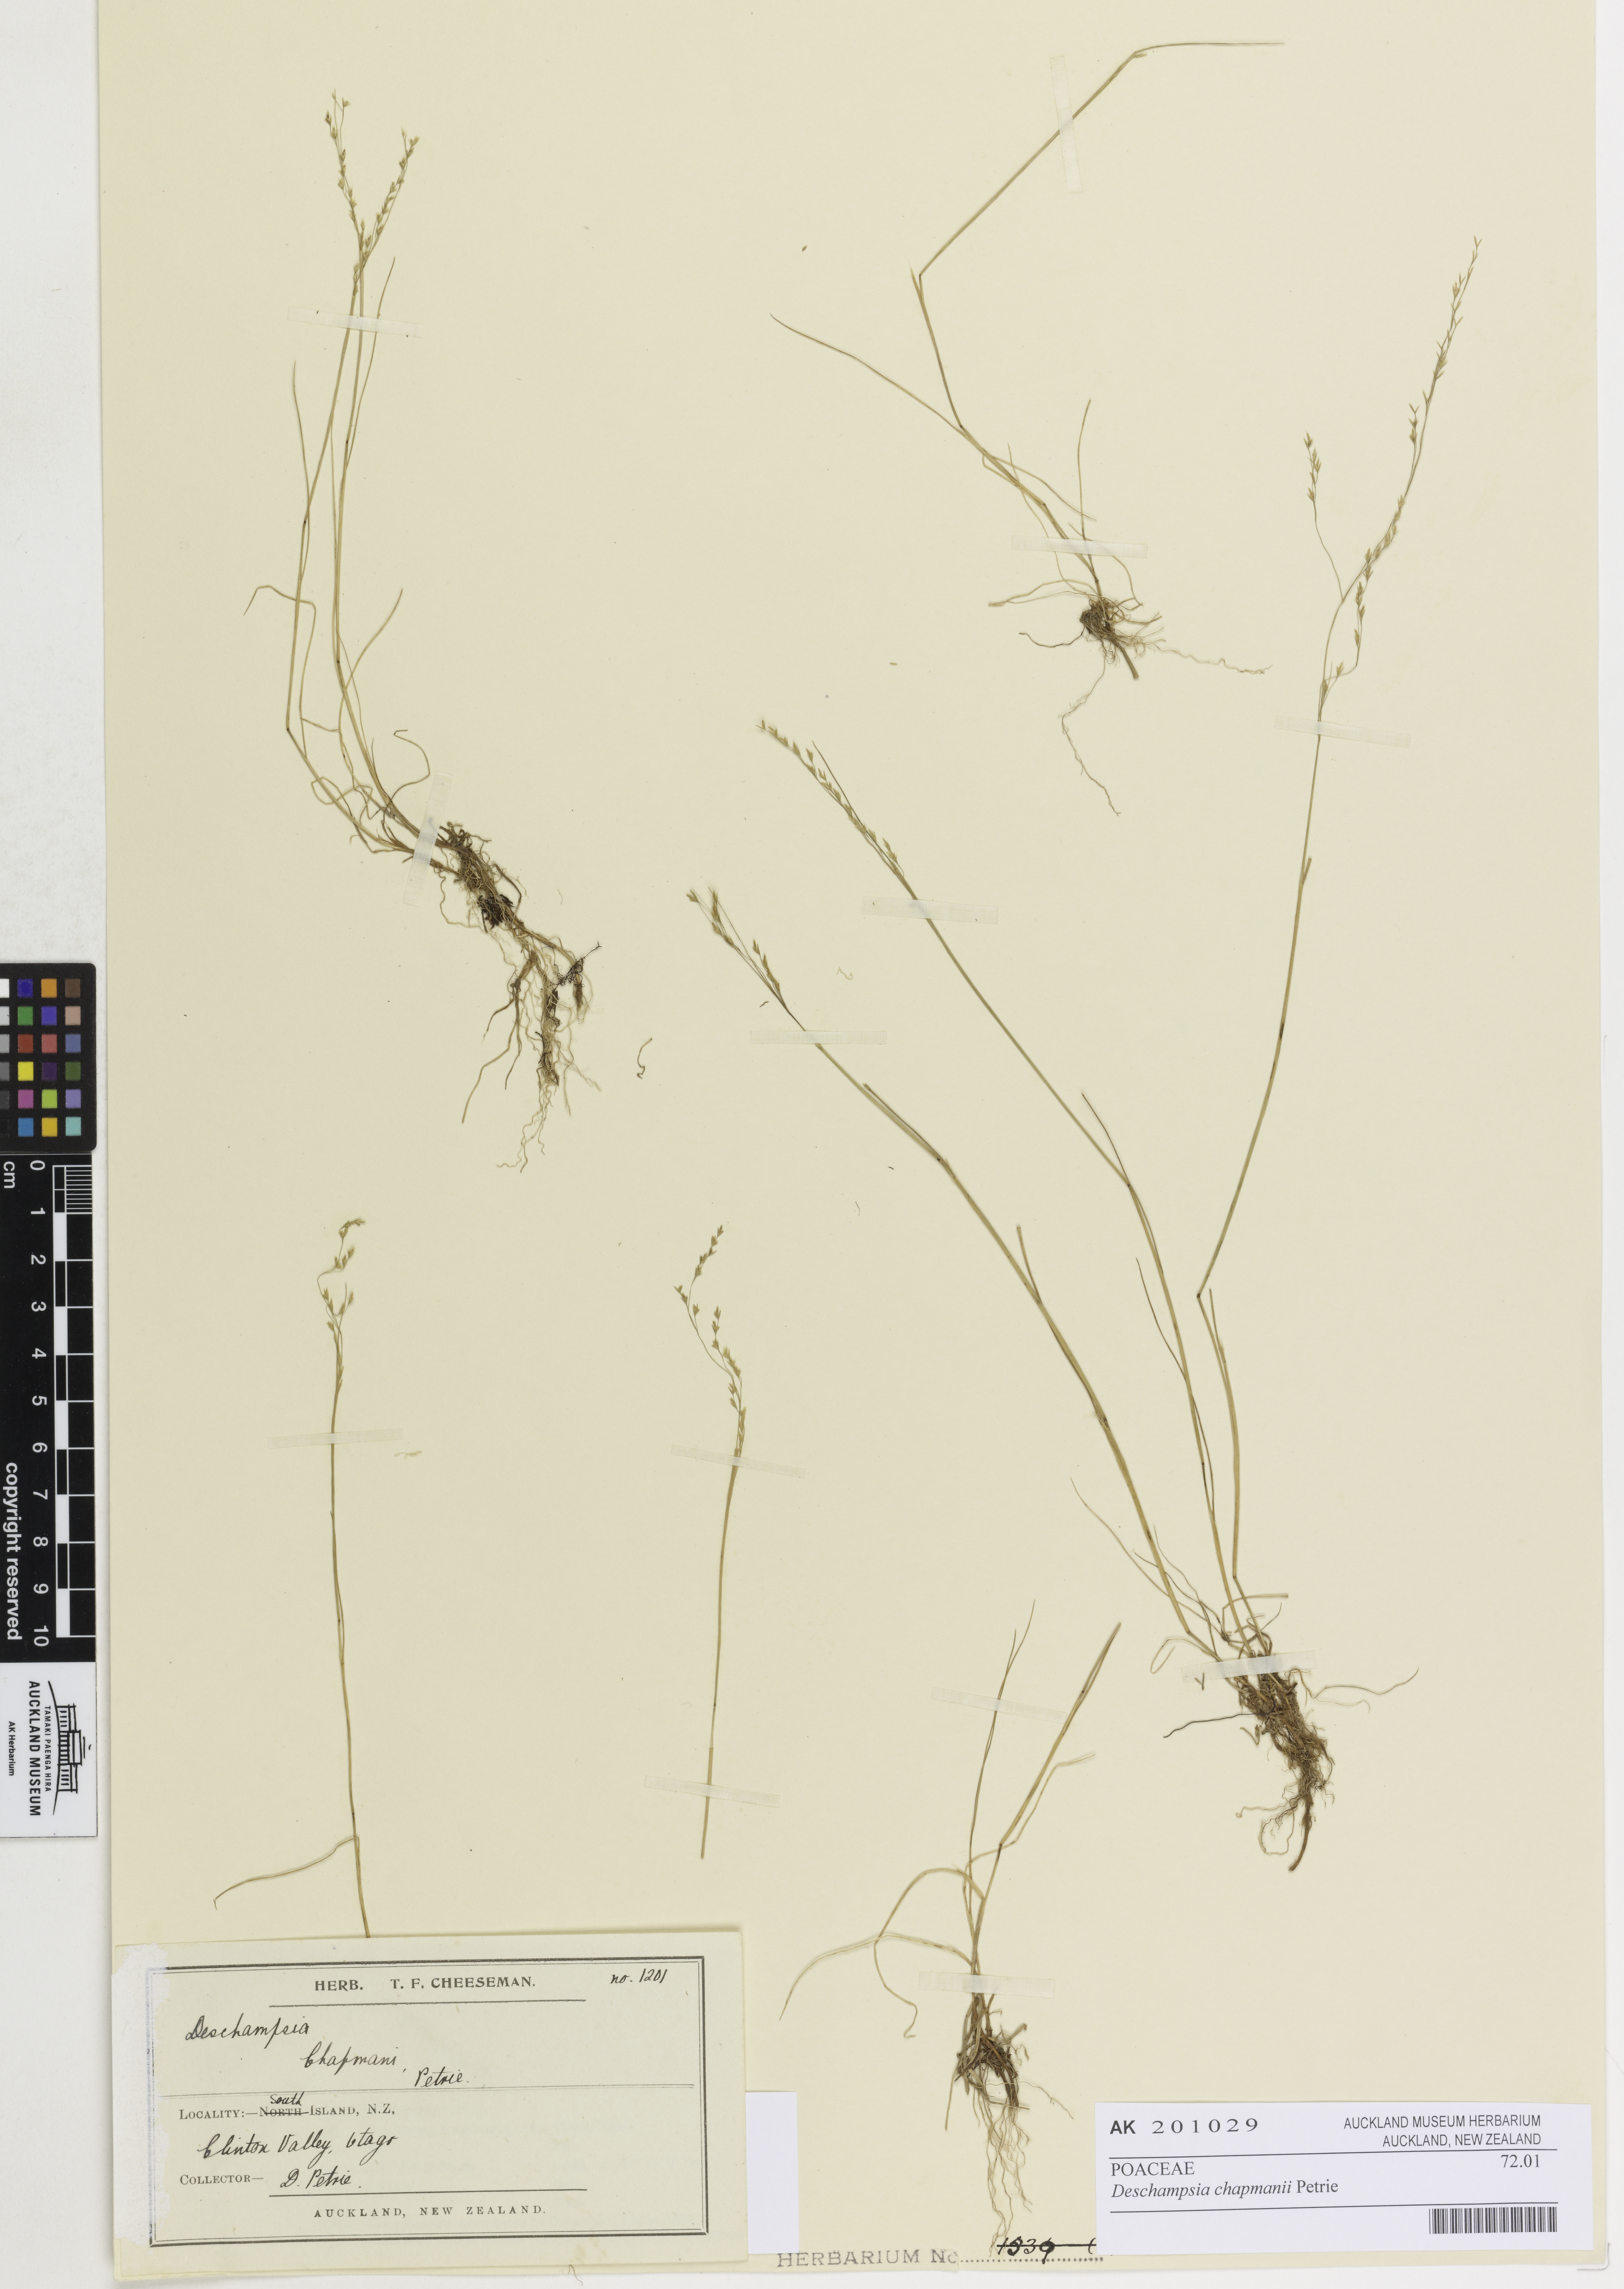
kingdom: Plantae
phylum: Tracheophyta
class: Liliopsida
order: Poales
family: Poaceae
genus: Deschampsia
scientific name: Deschampsia chapmanii
